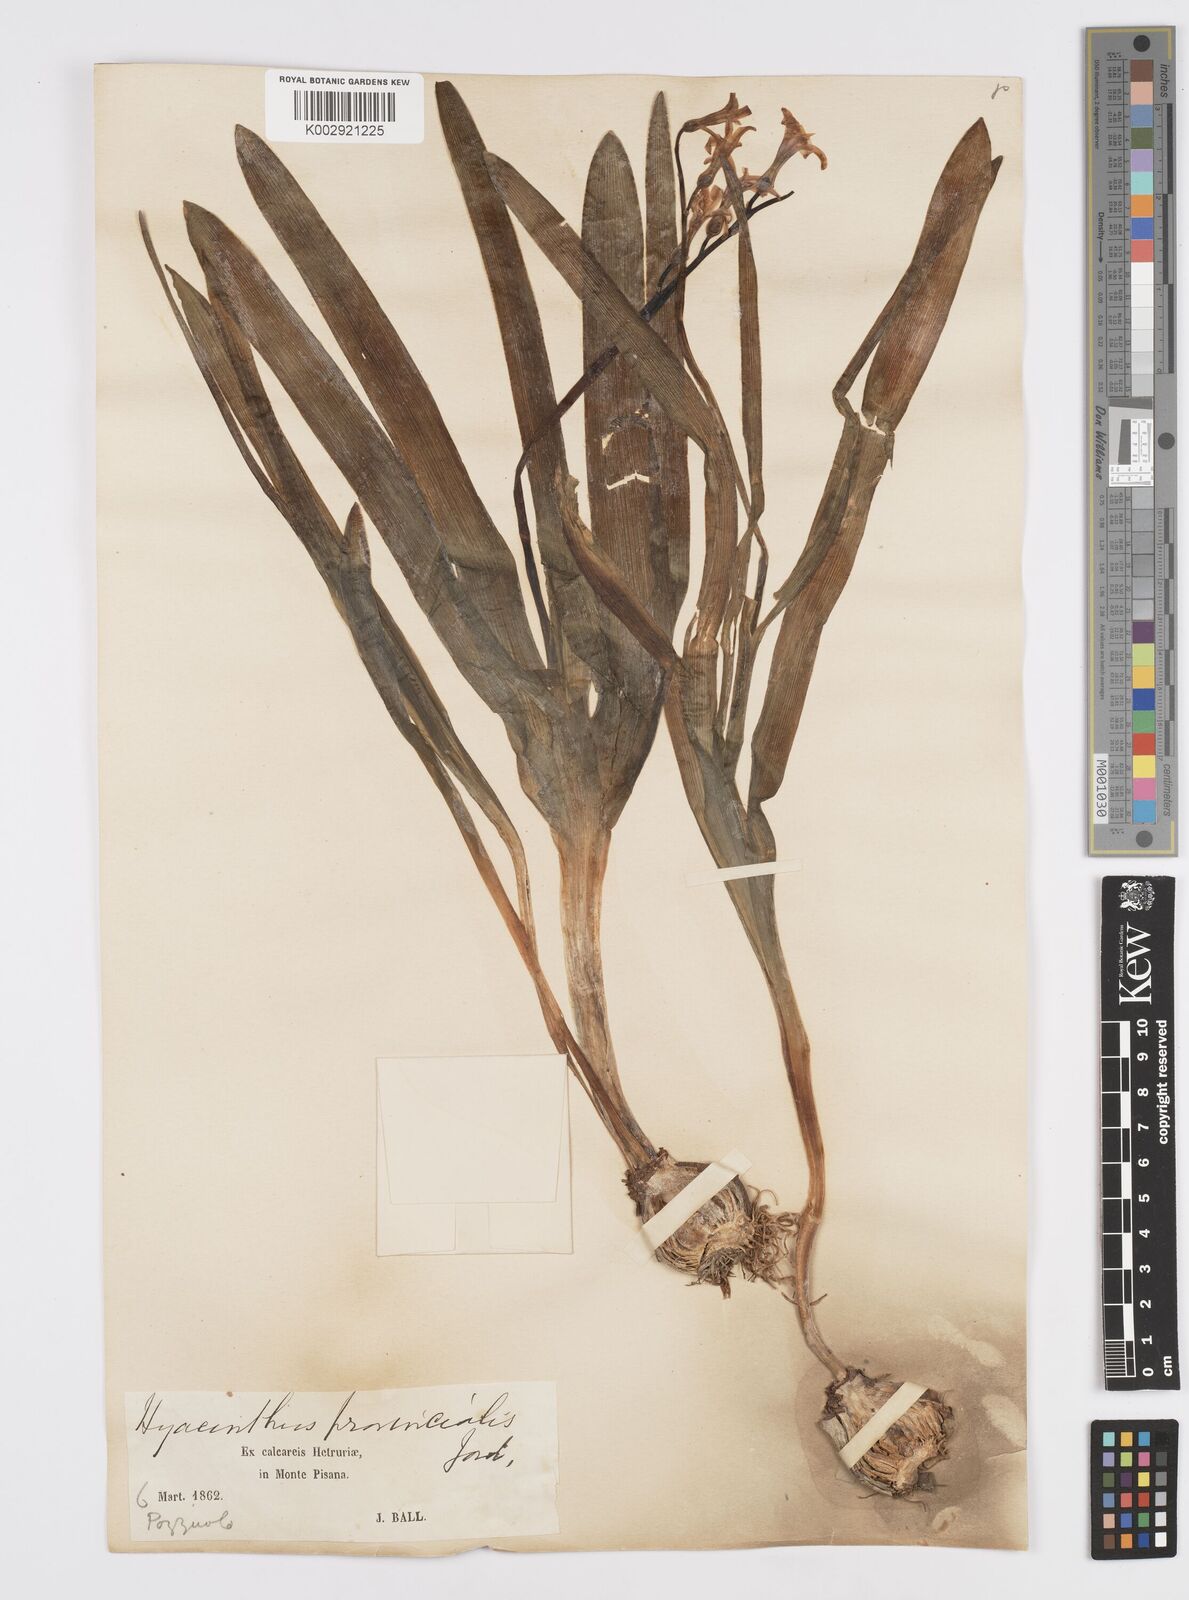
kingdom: Plantae
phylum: Tracheophyta
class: Liliopsida
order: Asparagales
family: Asparagaceae
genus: Hyacinthus
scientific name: Hyacinthus orientalis
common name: Hyacinth
